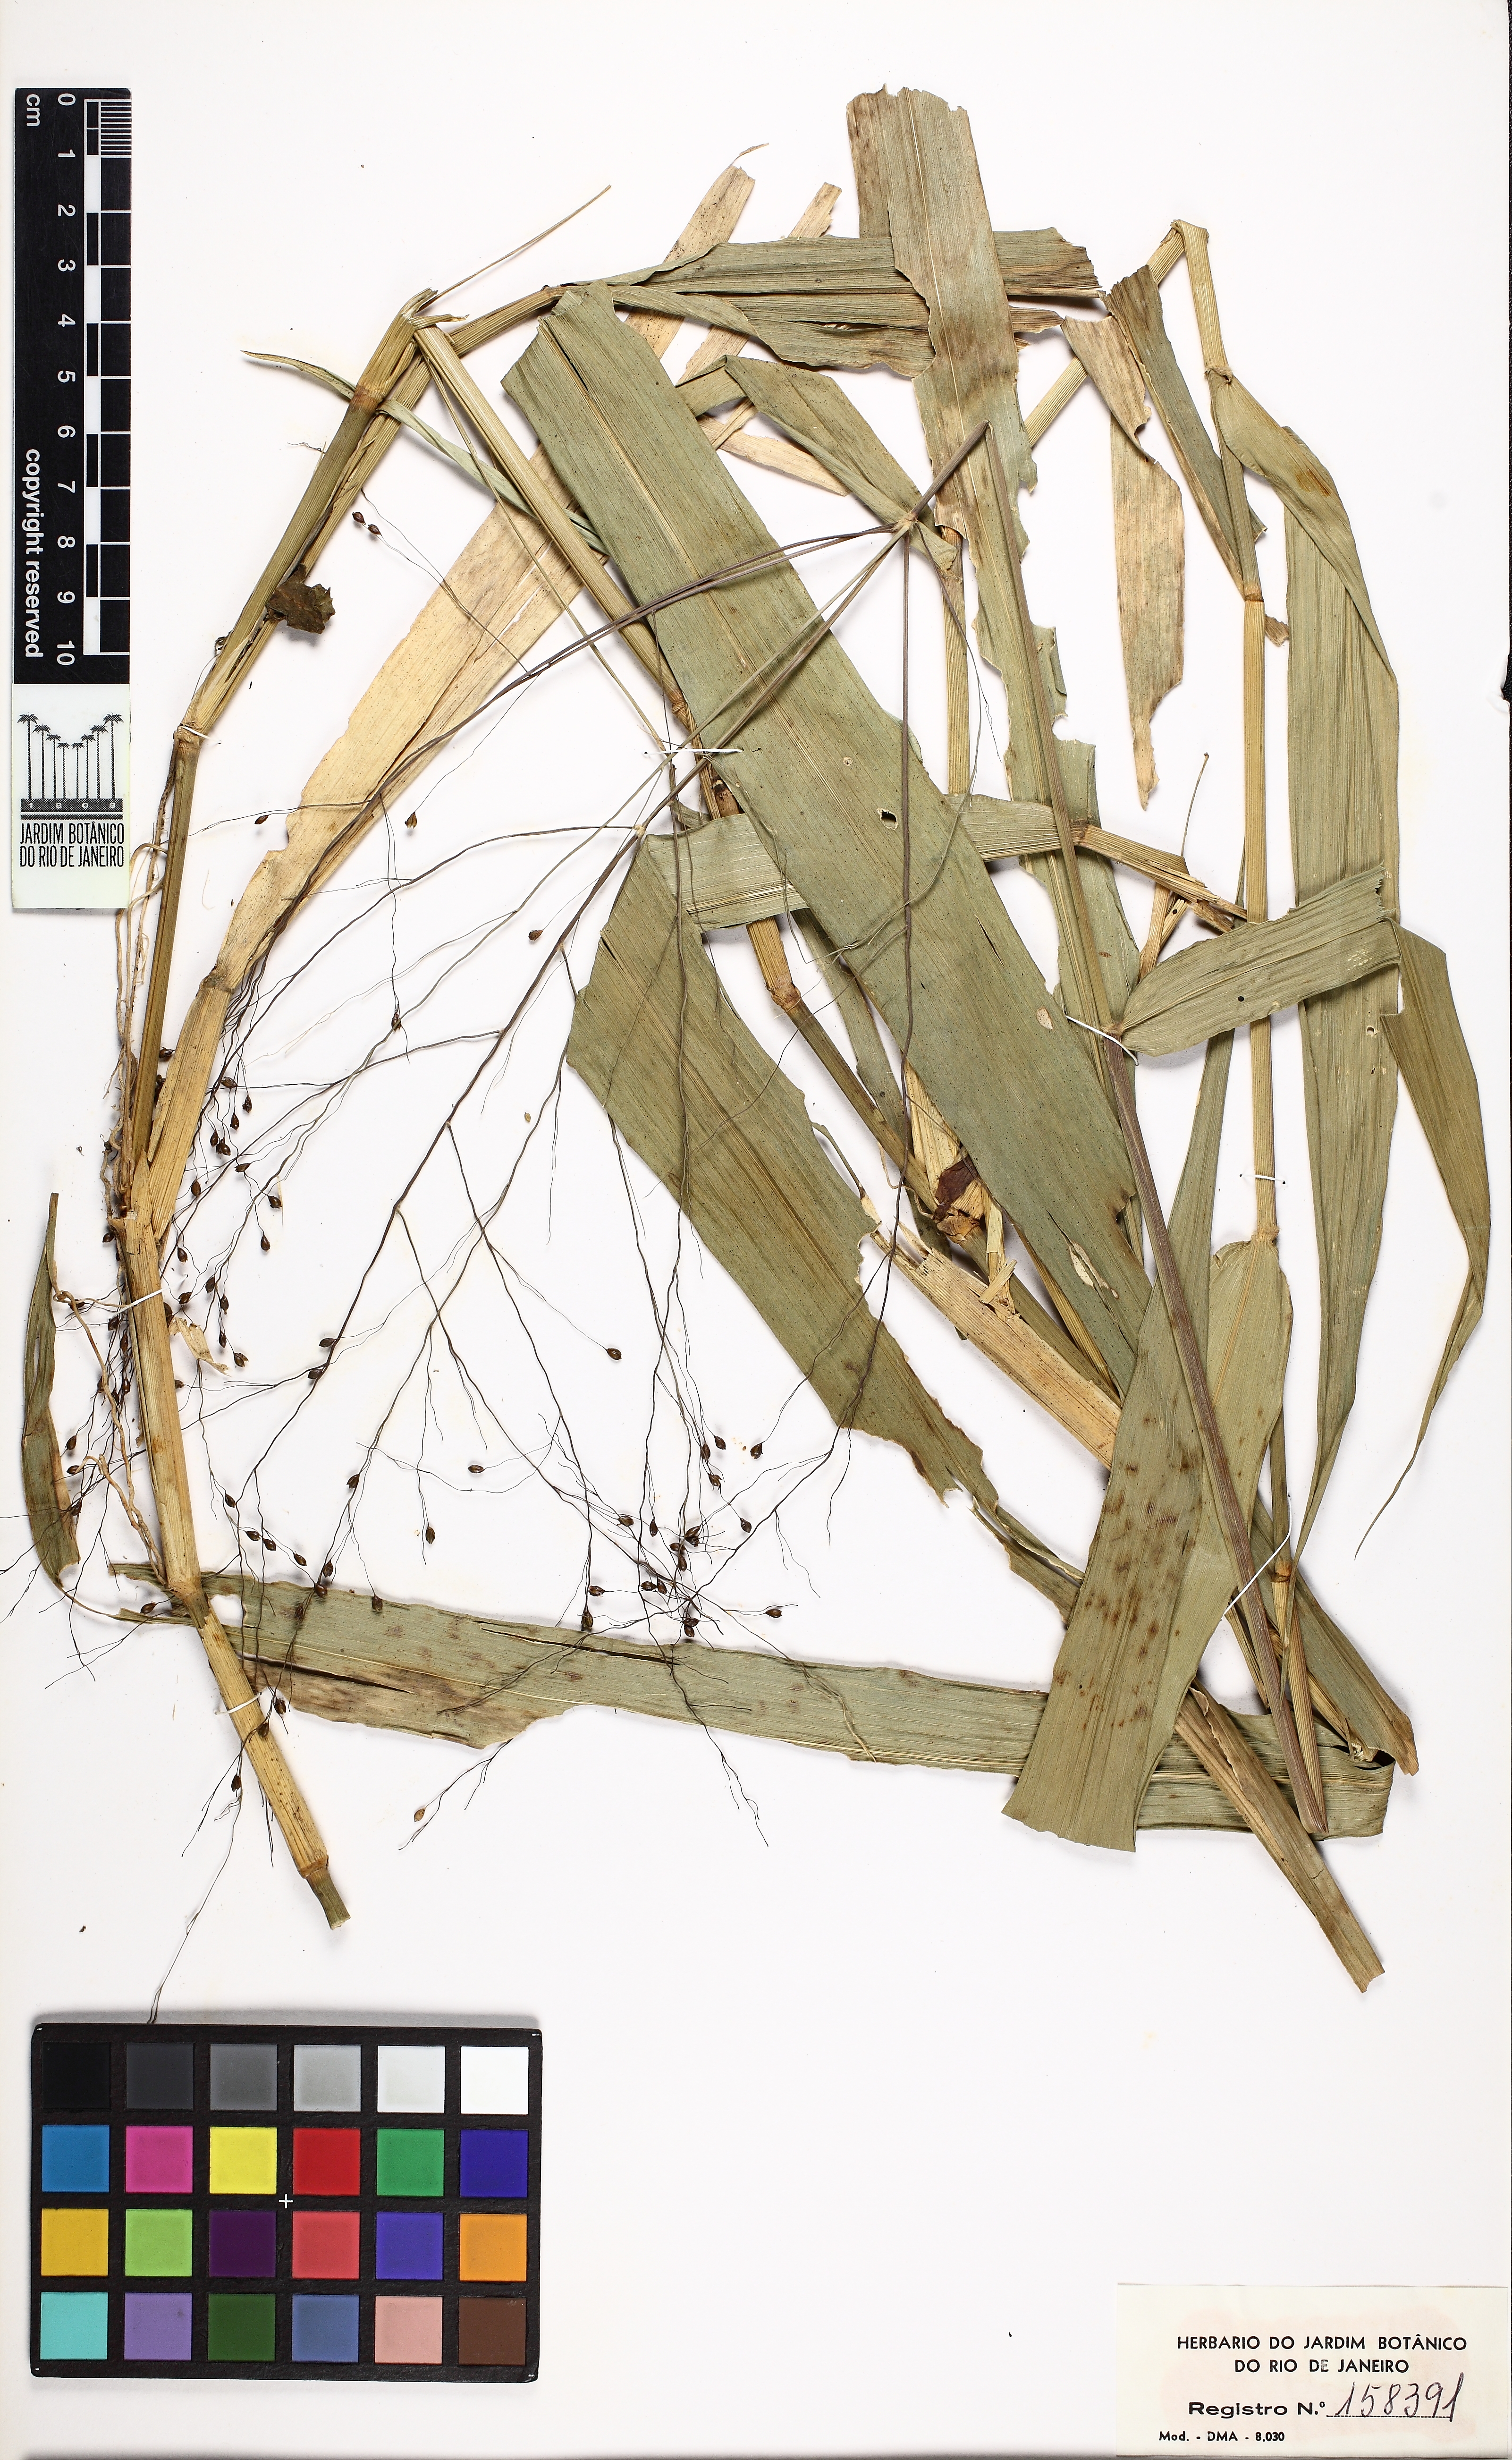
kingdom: Plantae
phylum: Tracheophyta
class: Liliopsida
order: Poales
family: Poaceae
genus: Homolepis
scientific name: Homolepis glutinosa
